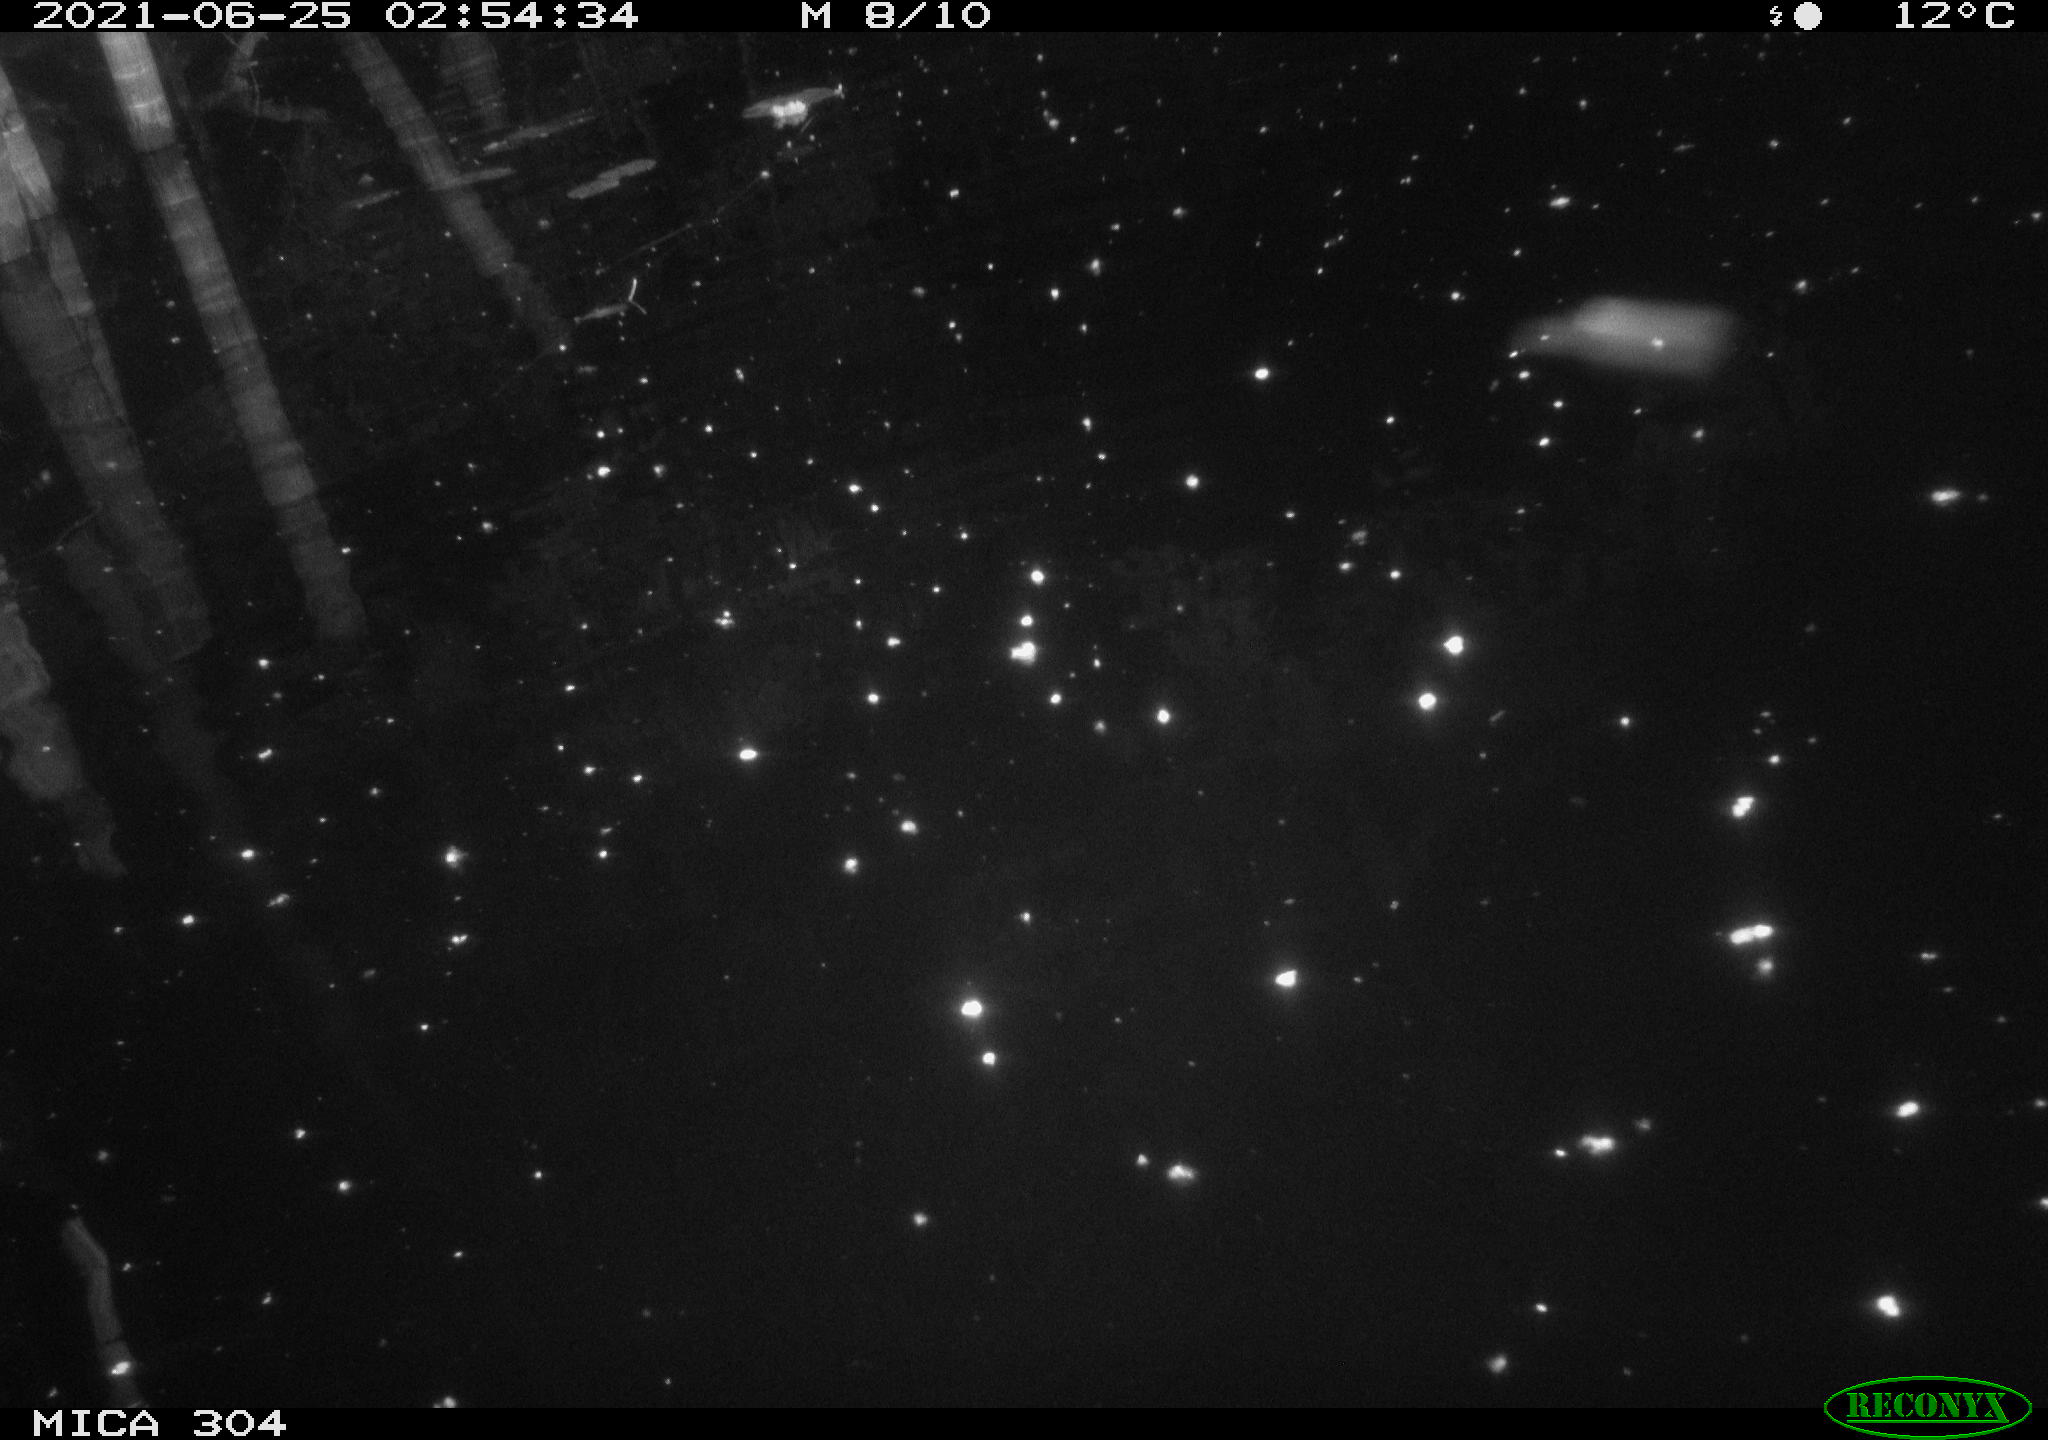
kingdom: Animalia
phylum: Chordata
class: Aves
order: Anseriformes
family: Anatidae
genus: Anas
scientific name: Anas platyrhynchos
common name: Mallard
